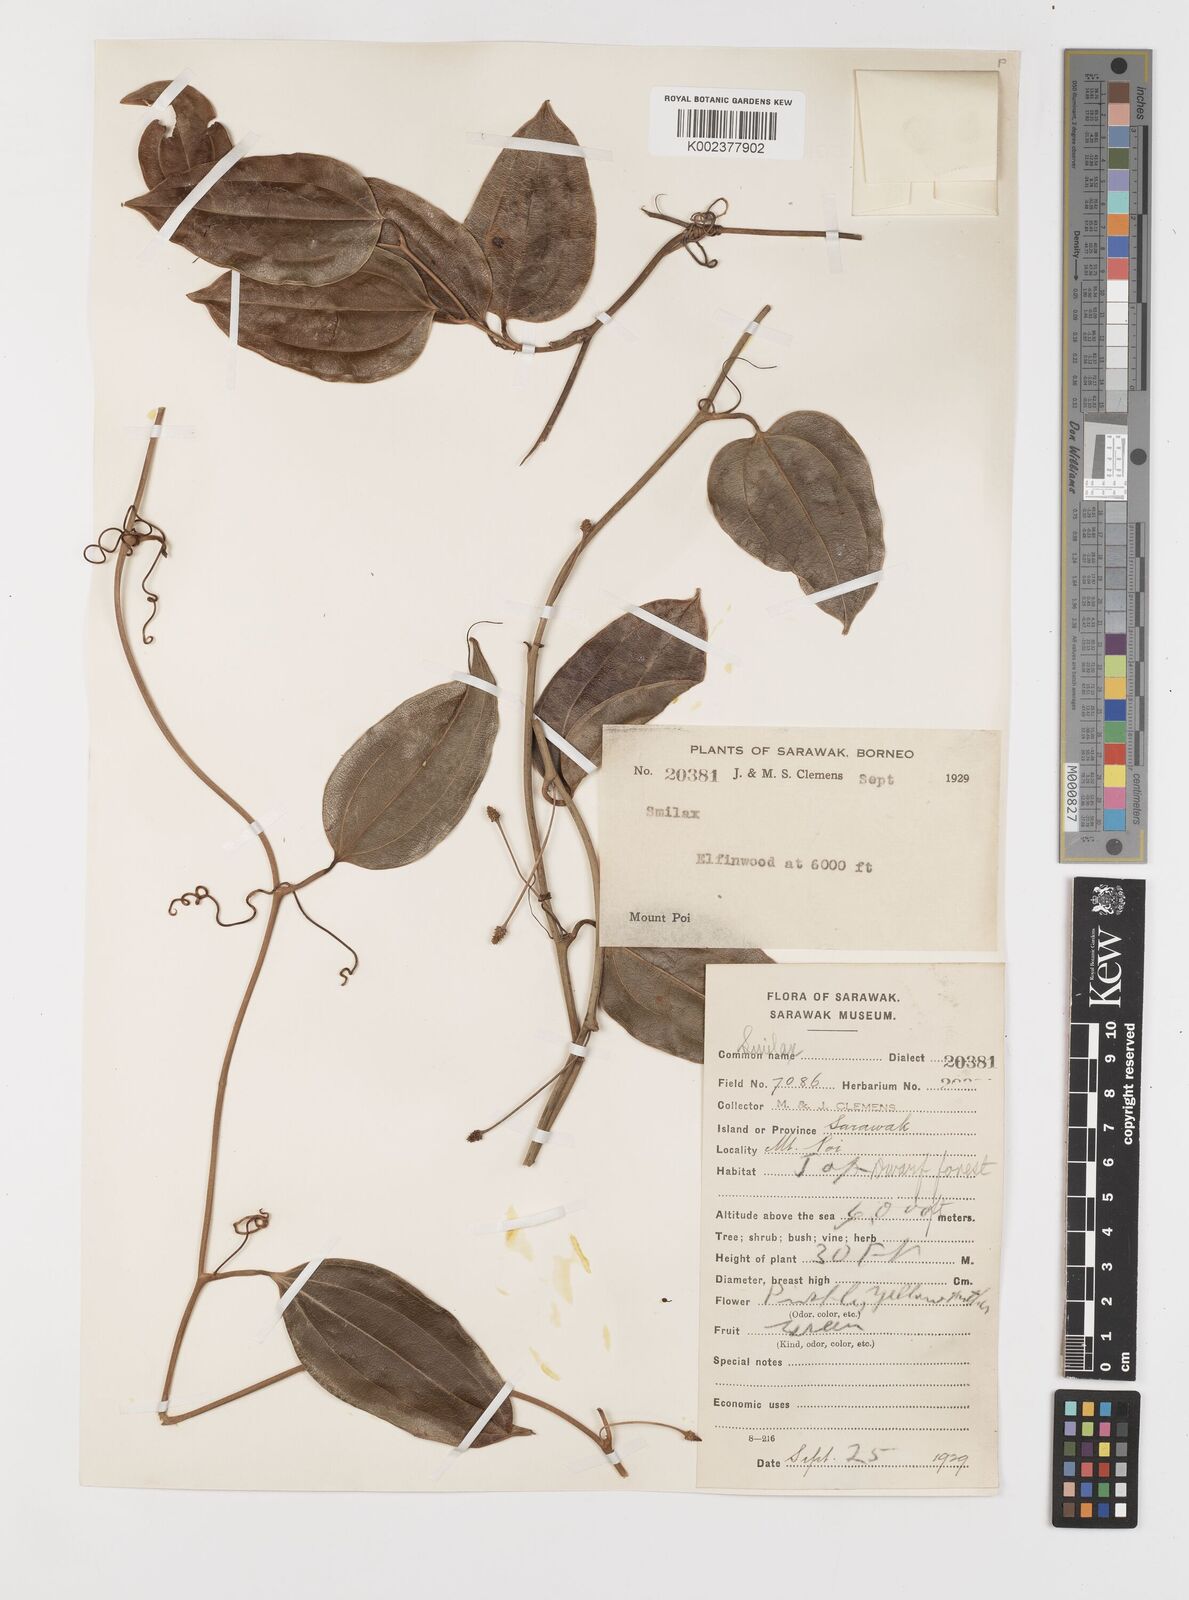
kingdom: Plantae
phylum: Tracheophyta
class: Liliopsida
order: Liliales
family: Smilacaceae
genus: Smilax
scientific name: Smilax
